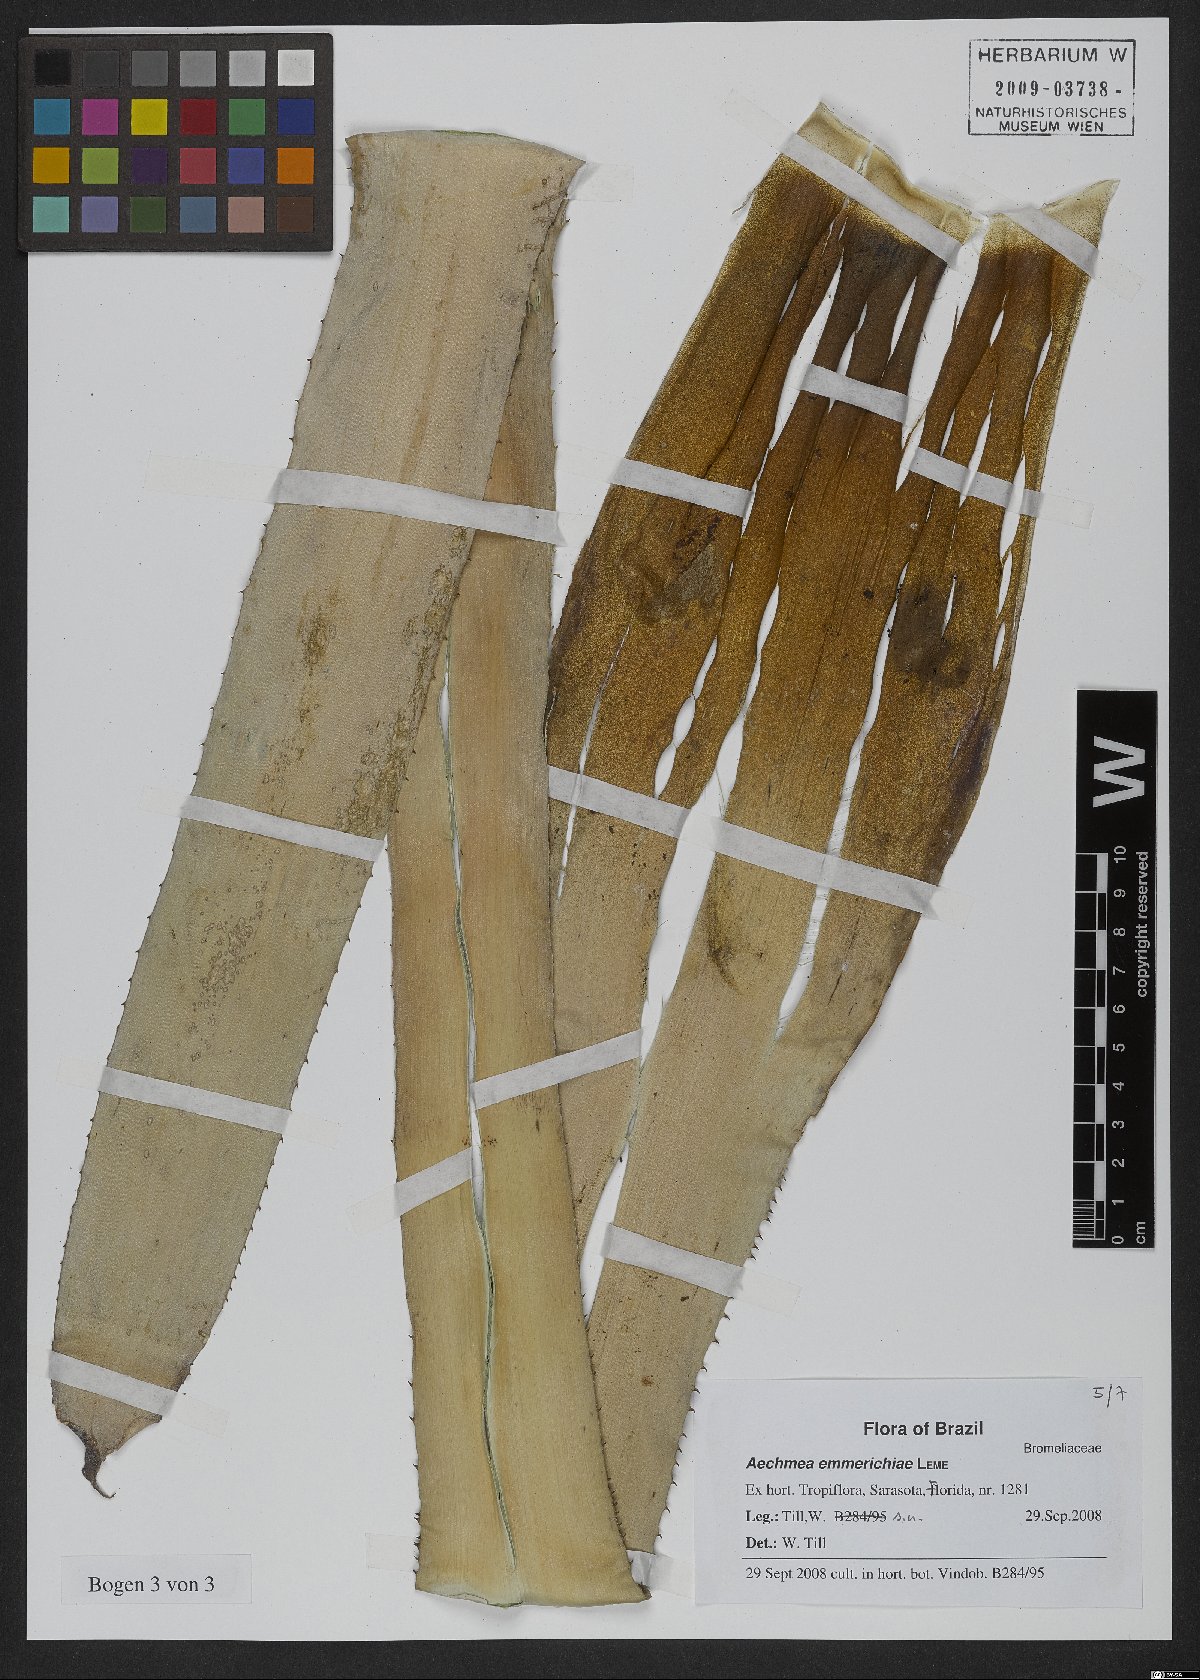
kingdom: Plantae
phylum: Tracheophyta
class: Liliopsida
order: Poales
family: Bromeliaceae
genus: Aechmea
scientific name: Aechmea emmerichiae
